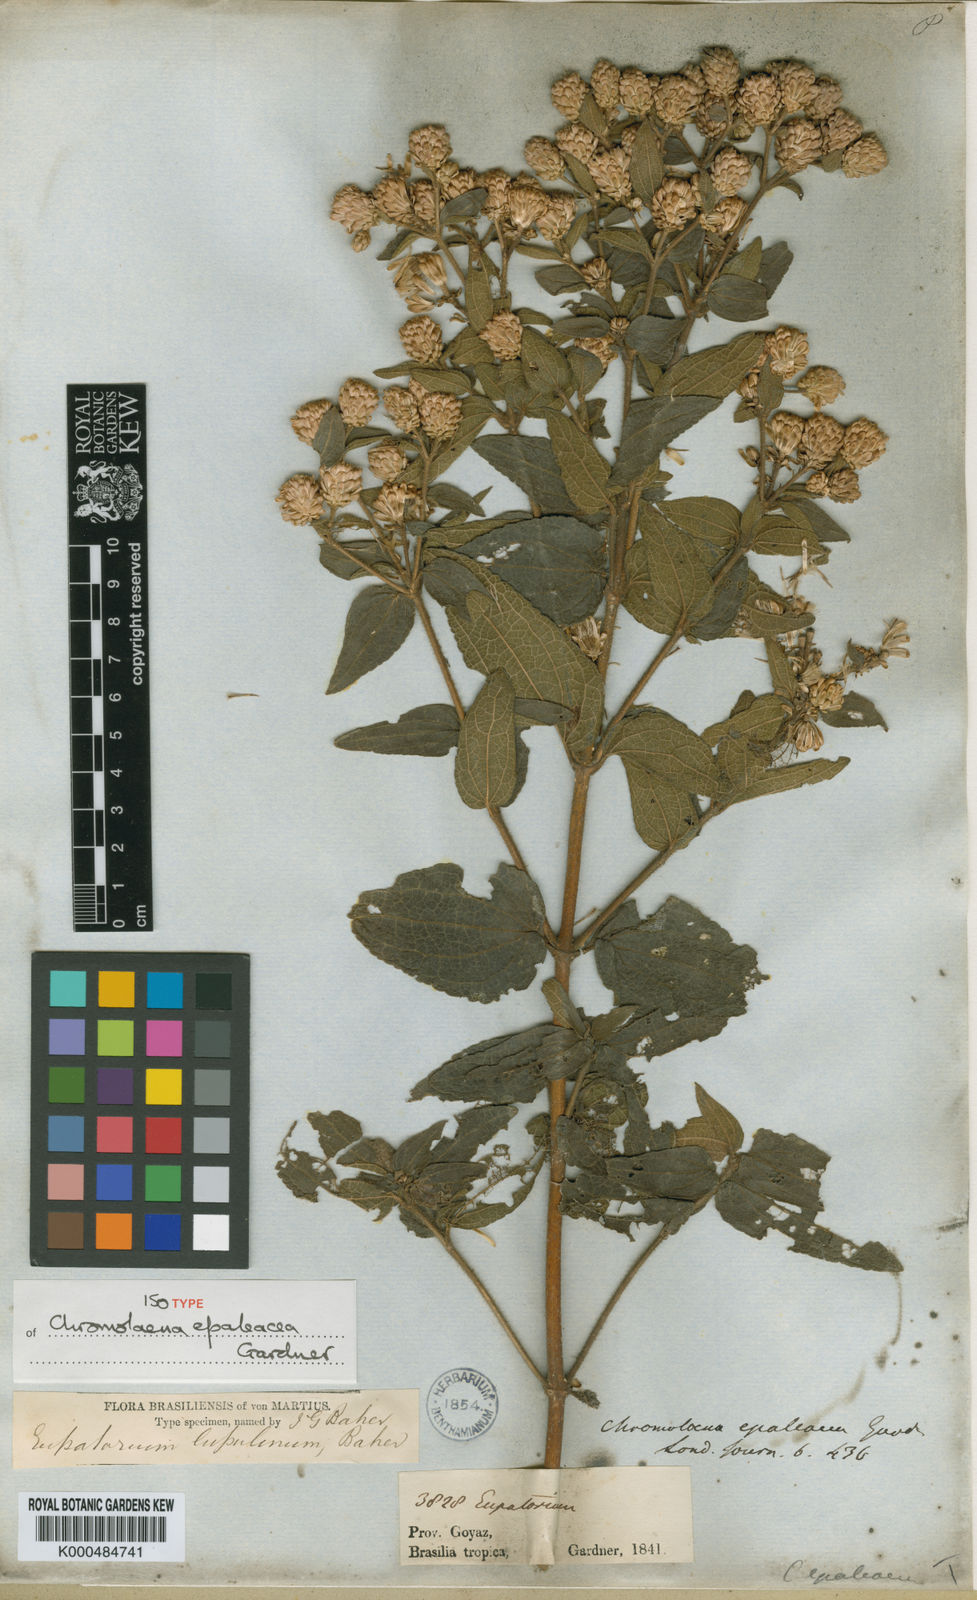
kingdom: Plantae
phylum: Tracheophyta
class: Magnoliopsida
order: Asterales
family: Asteraceae
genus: Chromolaena
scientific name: Chromolaena epaleacea
